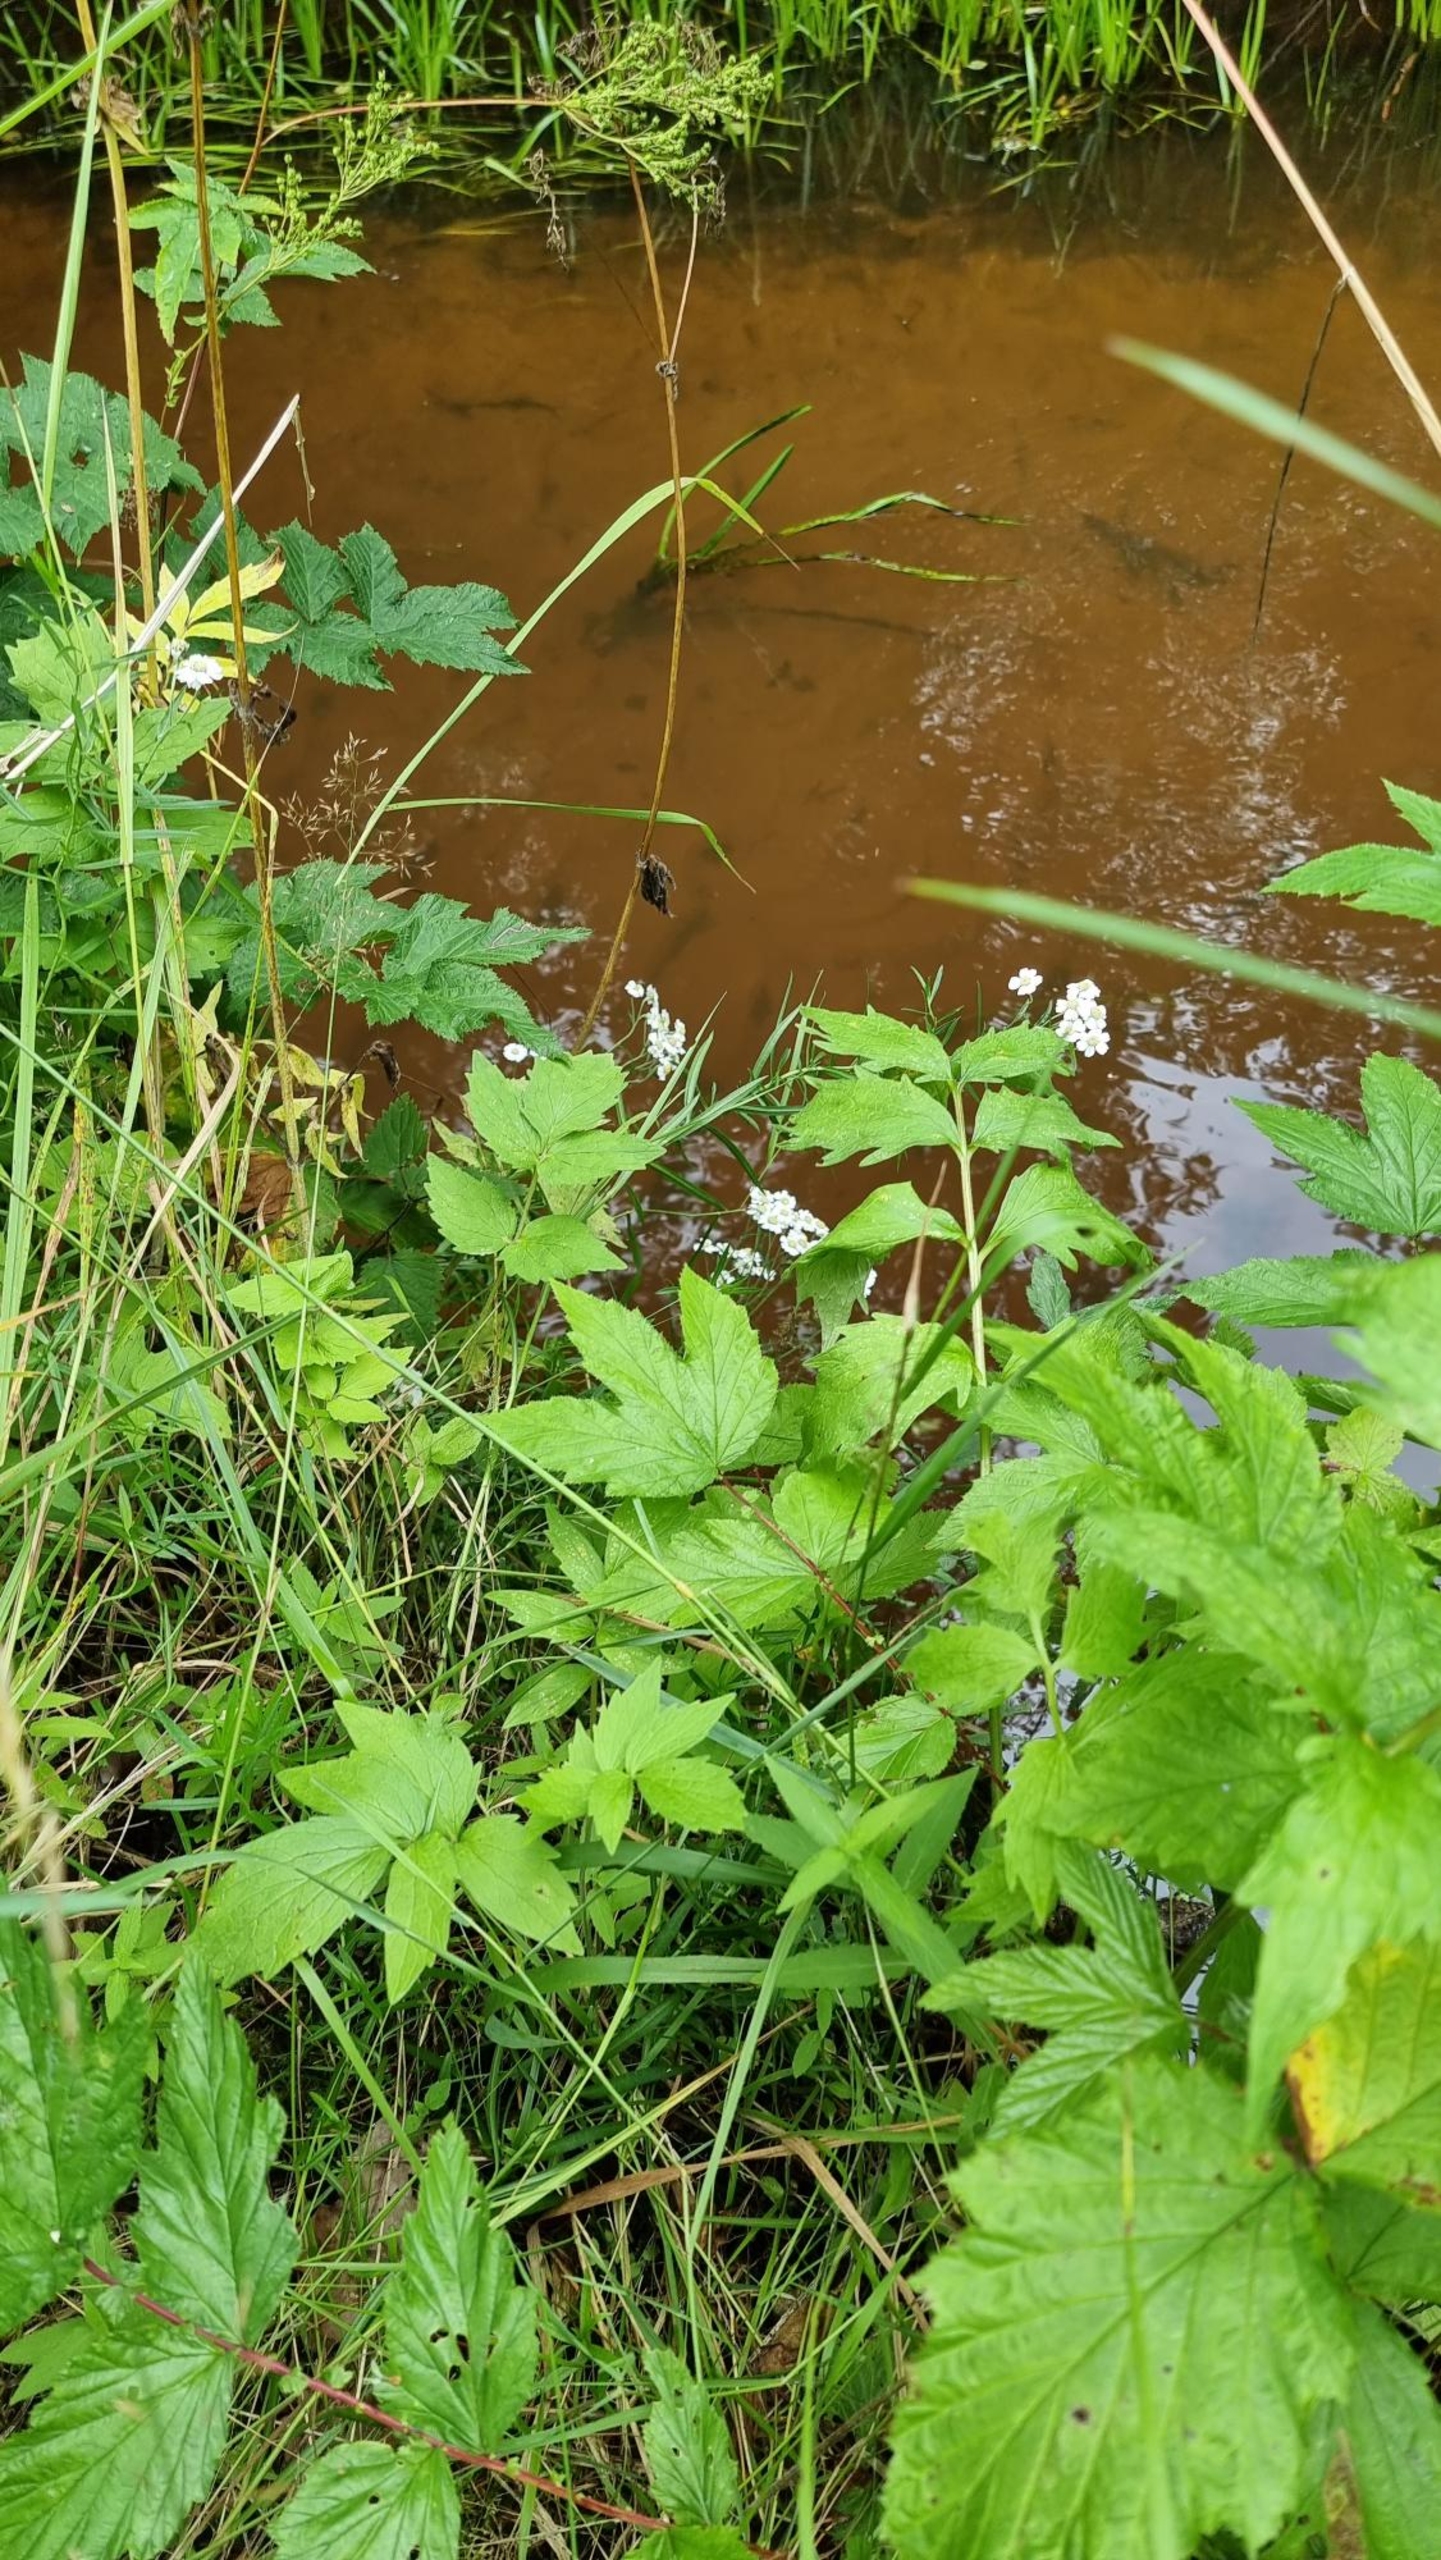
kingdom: Plantae
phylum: Tracheophyta
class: Magnoliopsida
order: Asterales
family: Asteraceae
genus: Achillea
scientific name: Achillea ptarmica
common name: Nyse-røllike
